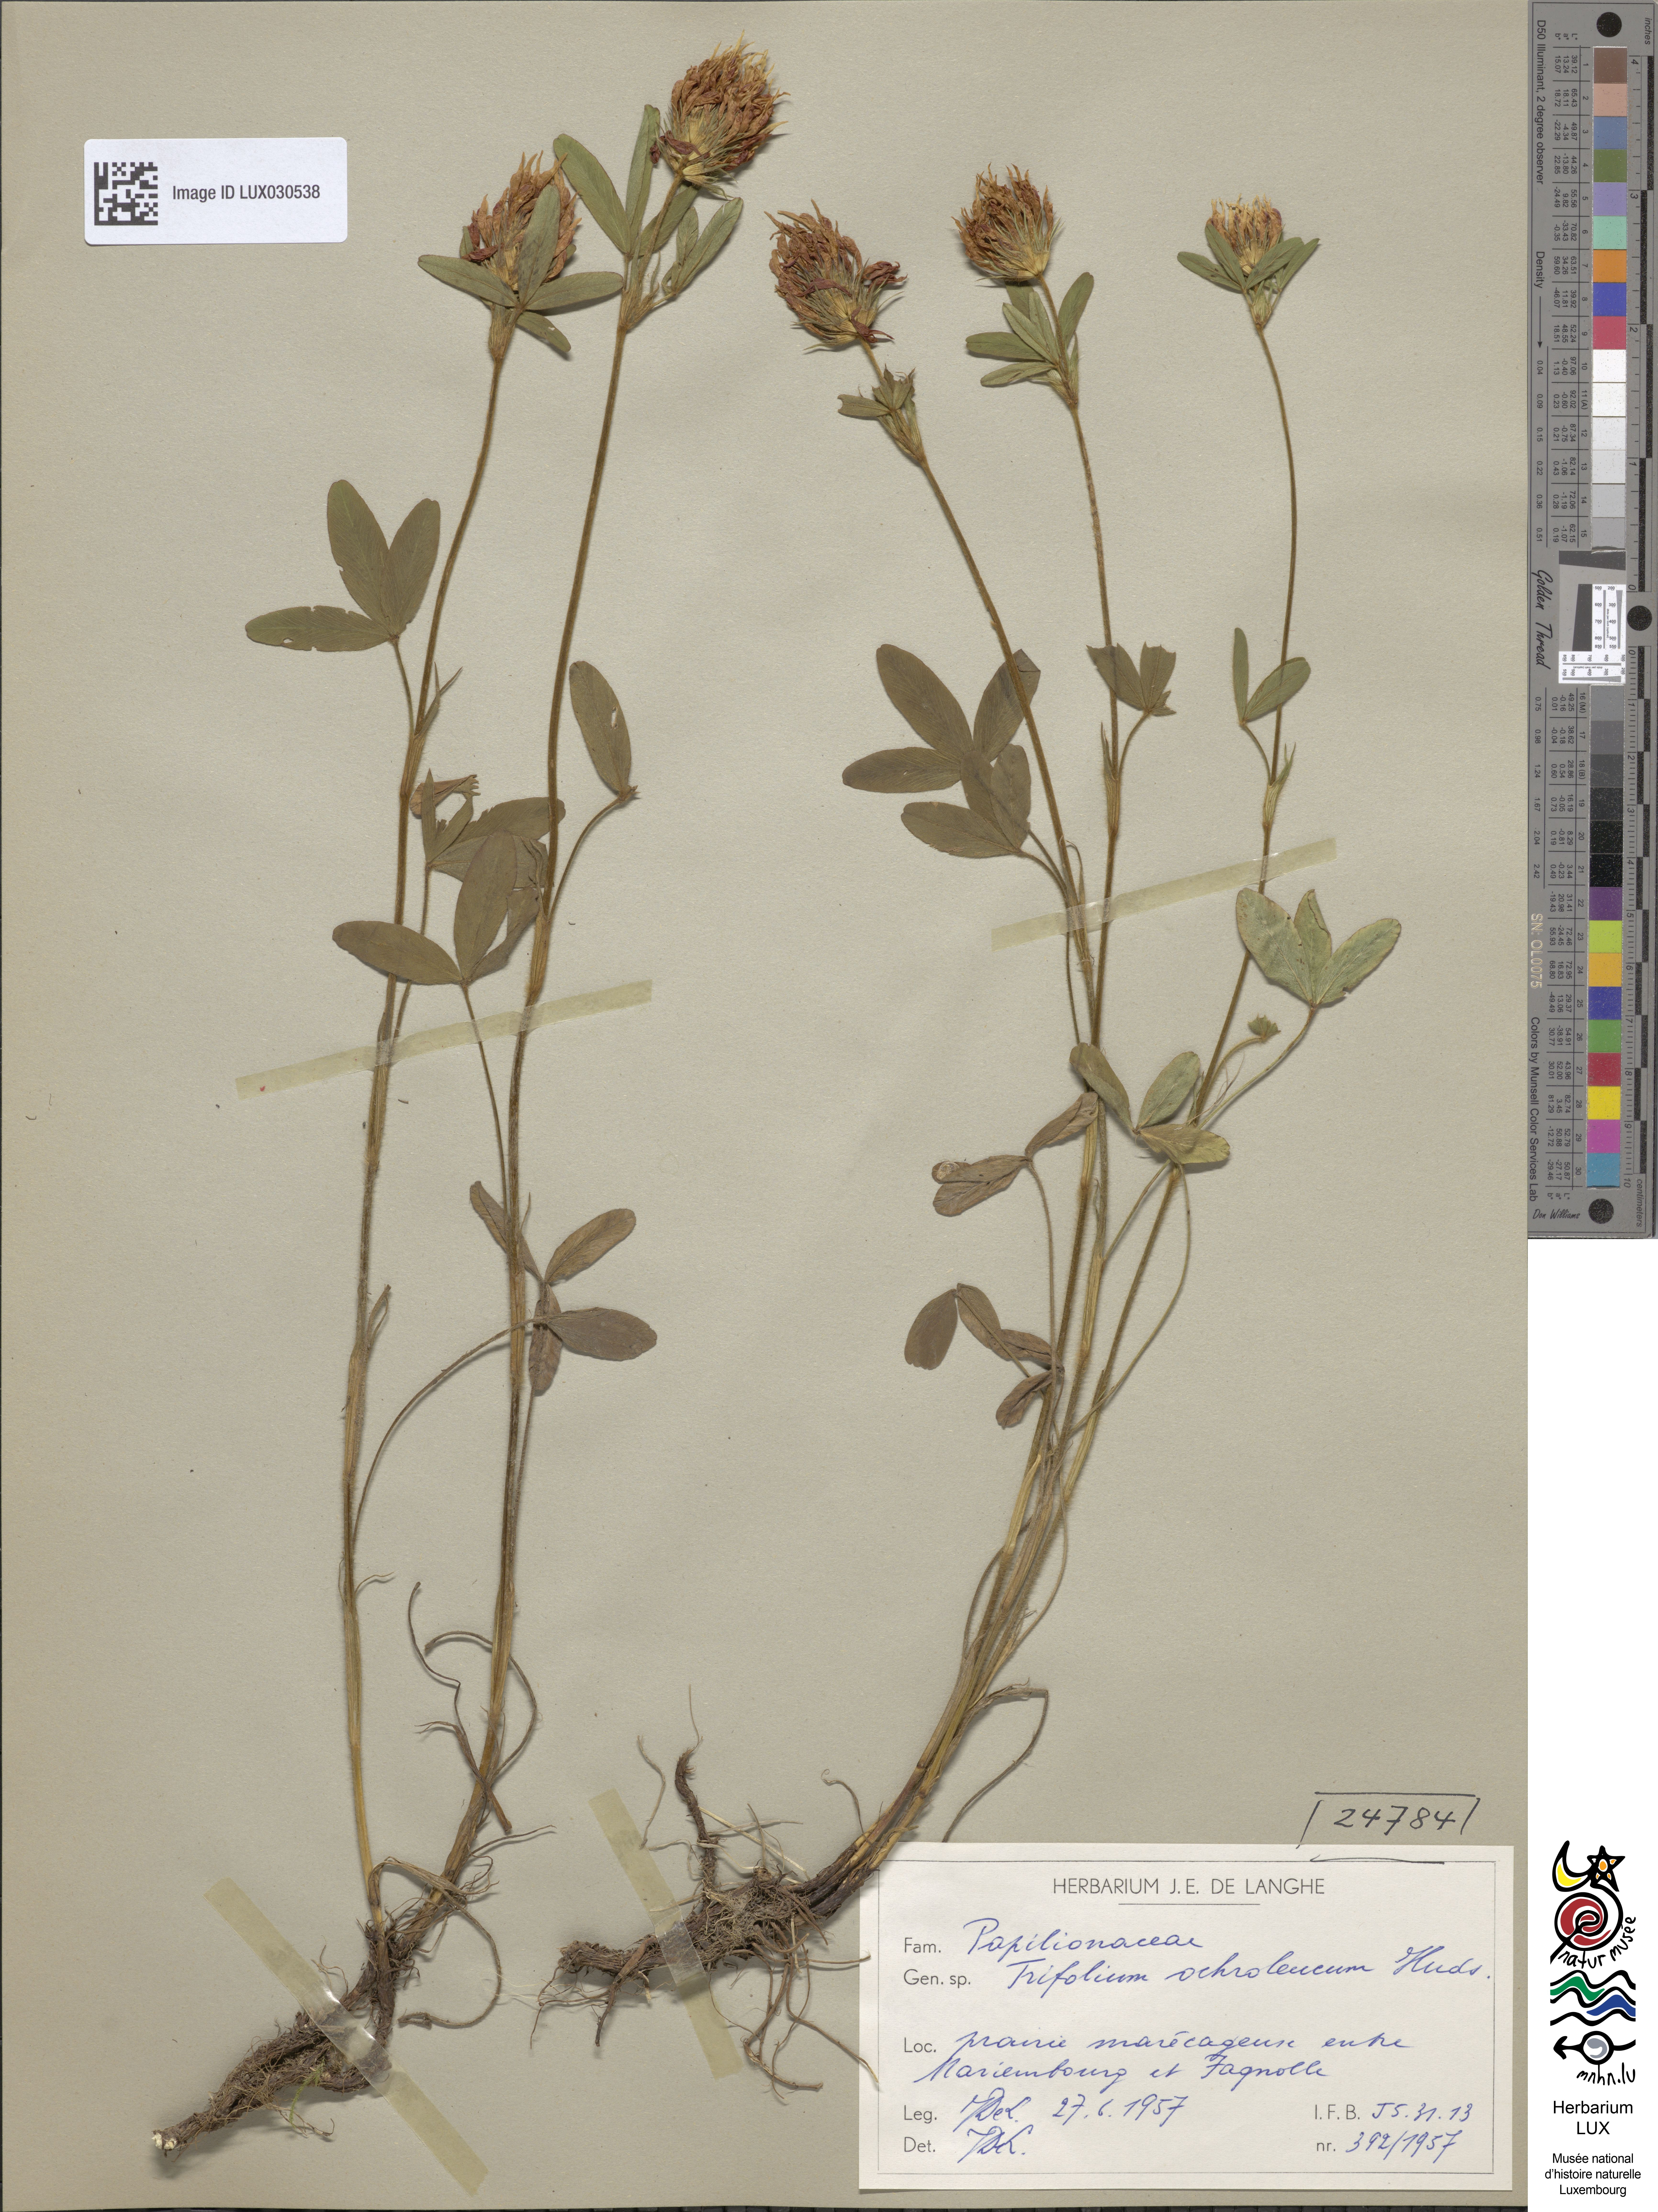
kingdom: Plantae
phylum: Tracheophyta
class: Magnoliopsida
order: Fabales
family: Fabaceae
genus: Trifolium
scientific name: Trifolium ochroleucon
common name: Sulphur clover
